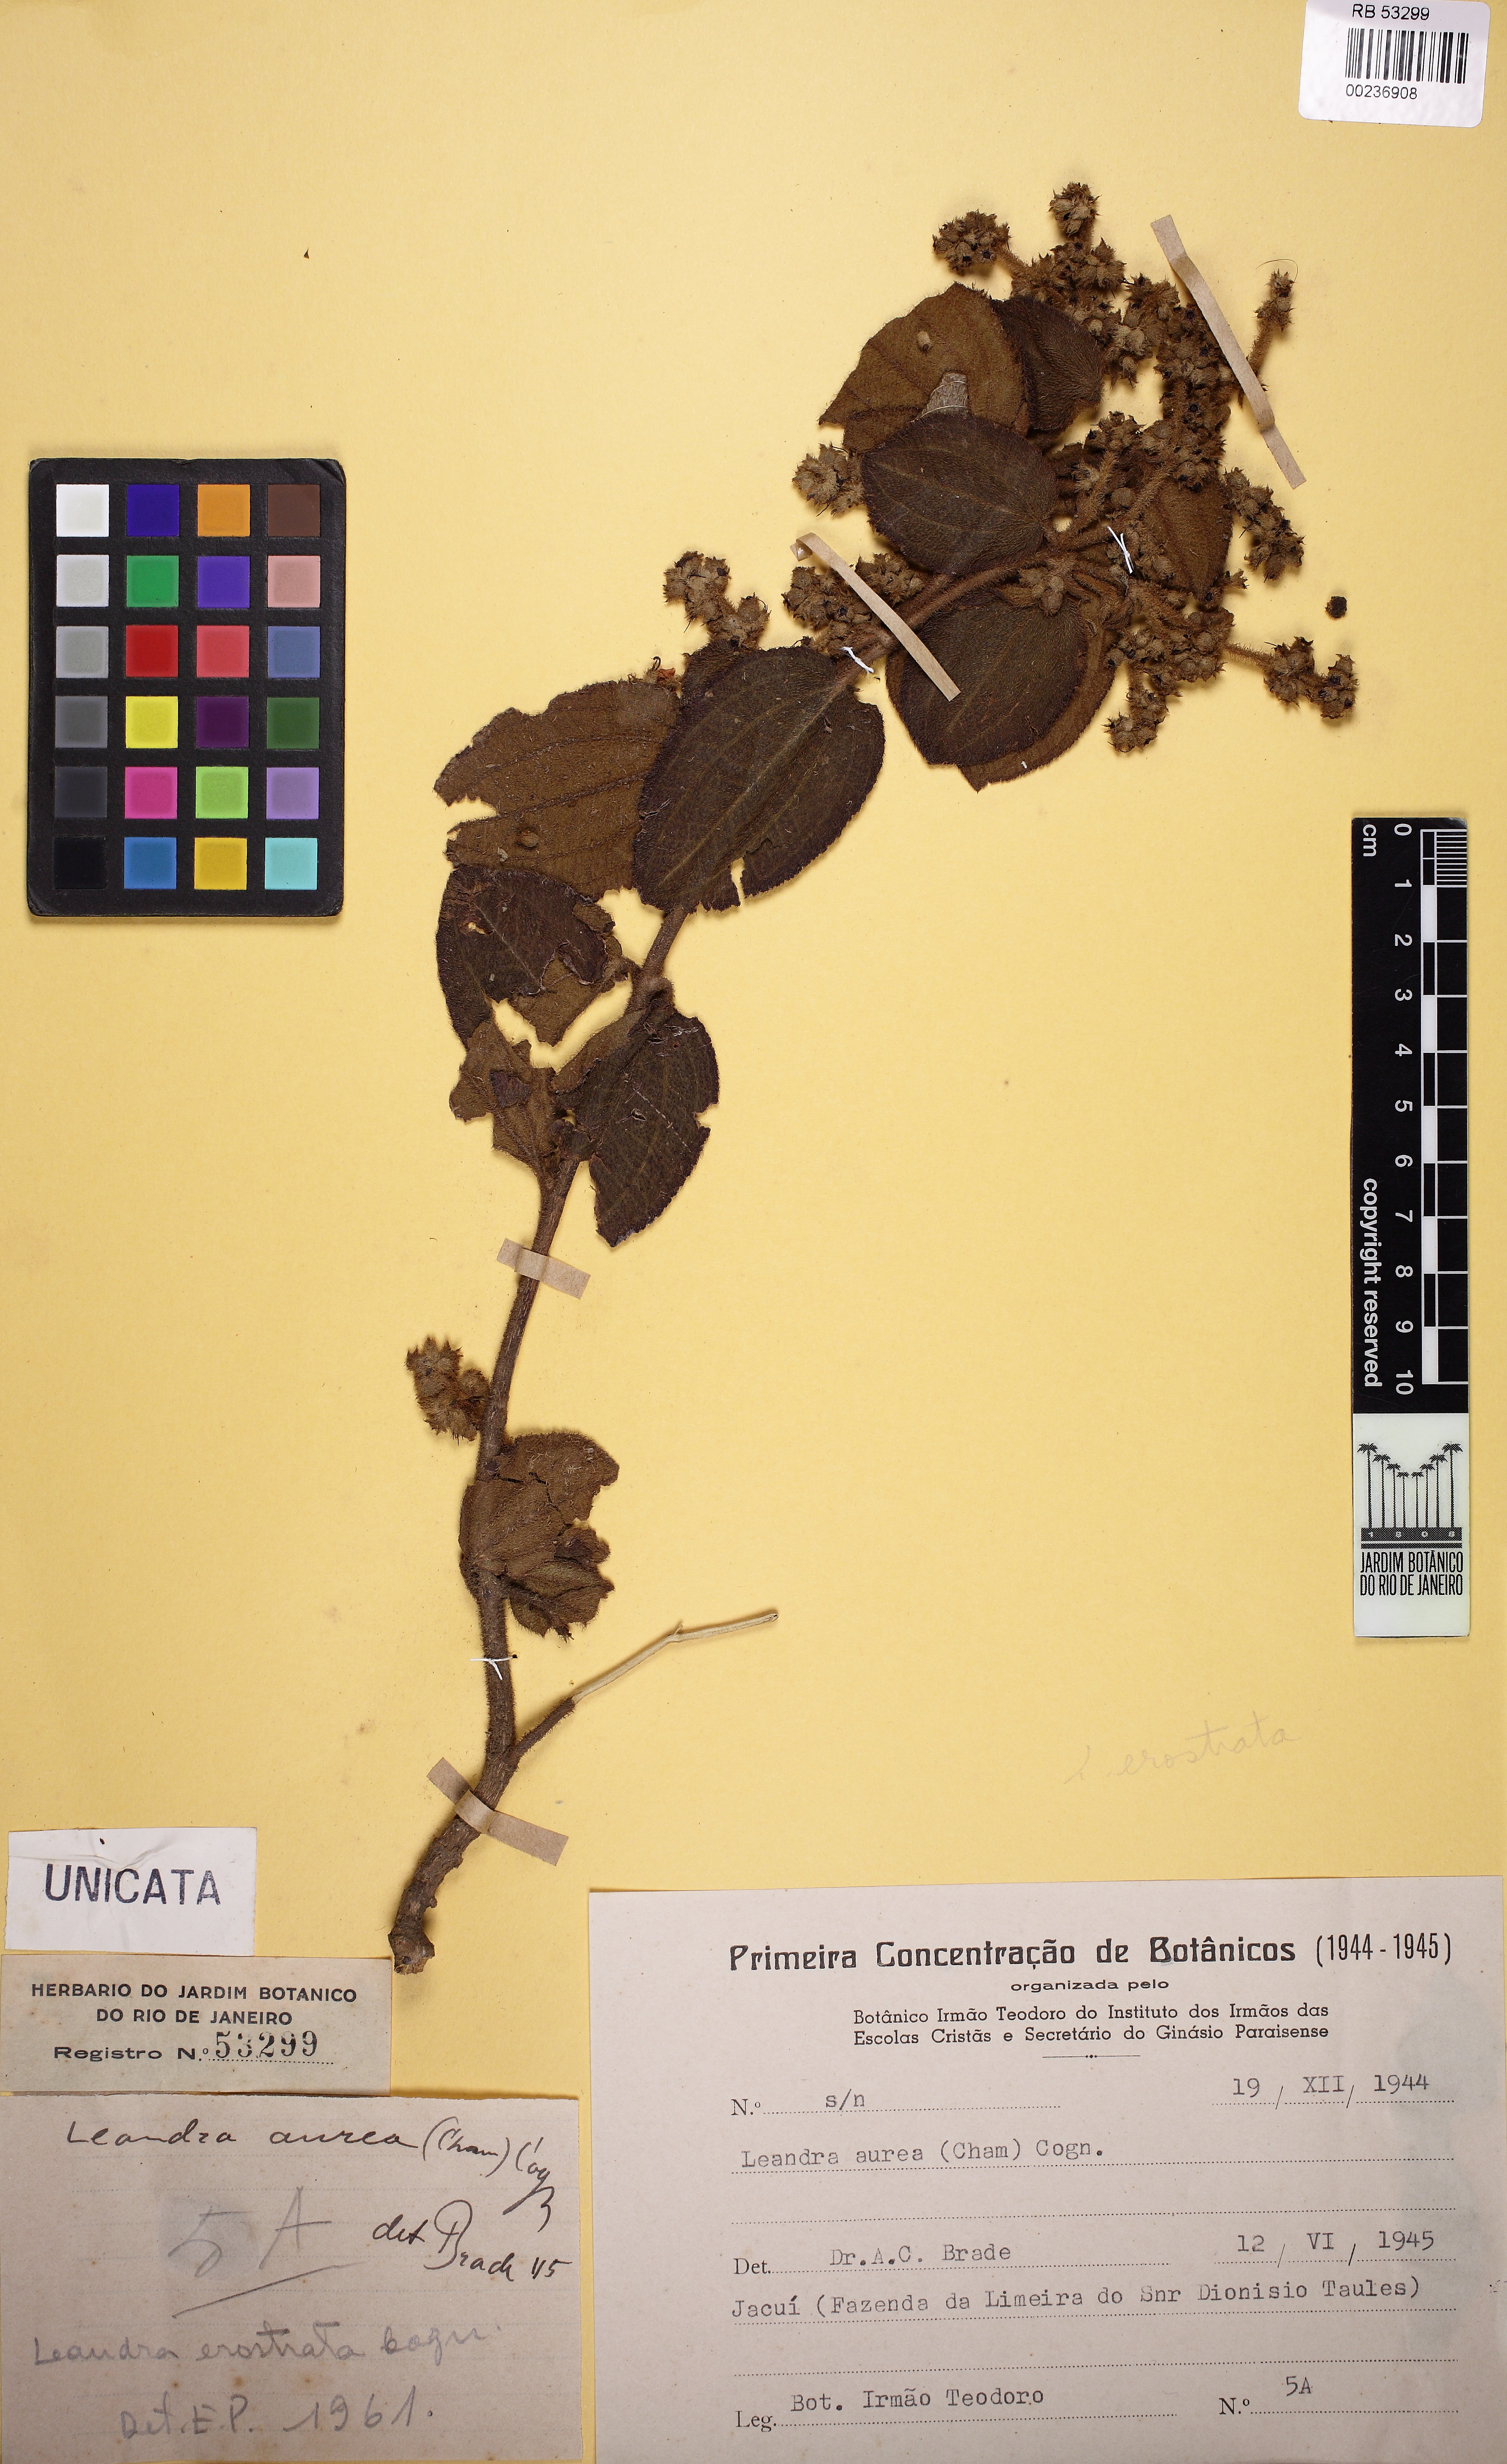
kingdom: Plantae
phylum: Tracheophyta
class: Magnoliopsida
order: Myrtales
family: Melastomataceae
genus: Miconia
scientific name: Miconia erostrata
